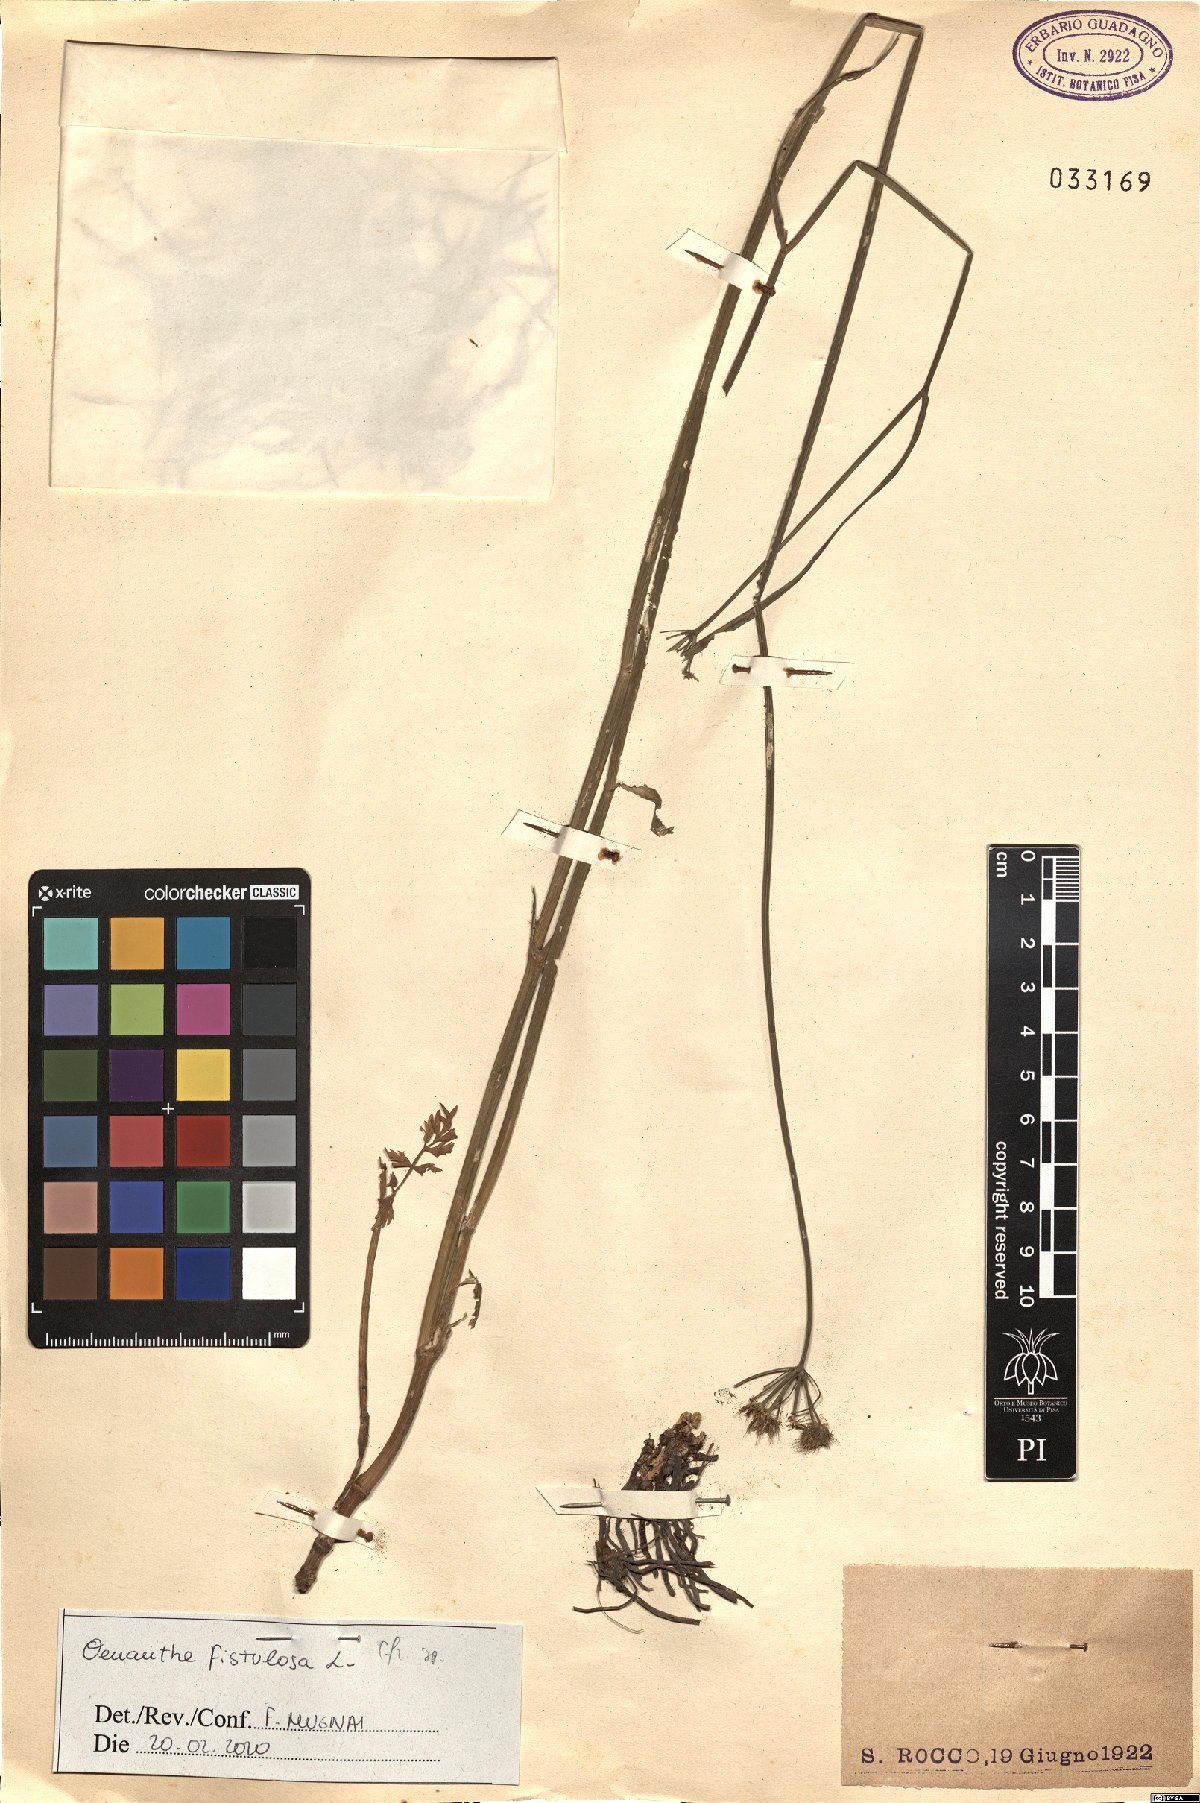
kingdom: Plantae
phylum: Tracheophyta
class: Magnoliopsida
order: Apiales
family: Apiaceae
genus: Oenanthe
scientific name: Oenanthe fistulosa
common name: Tubular water-dropwort
